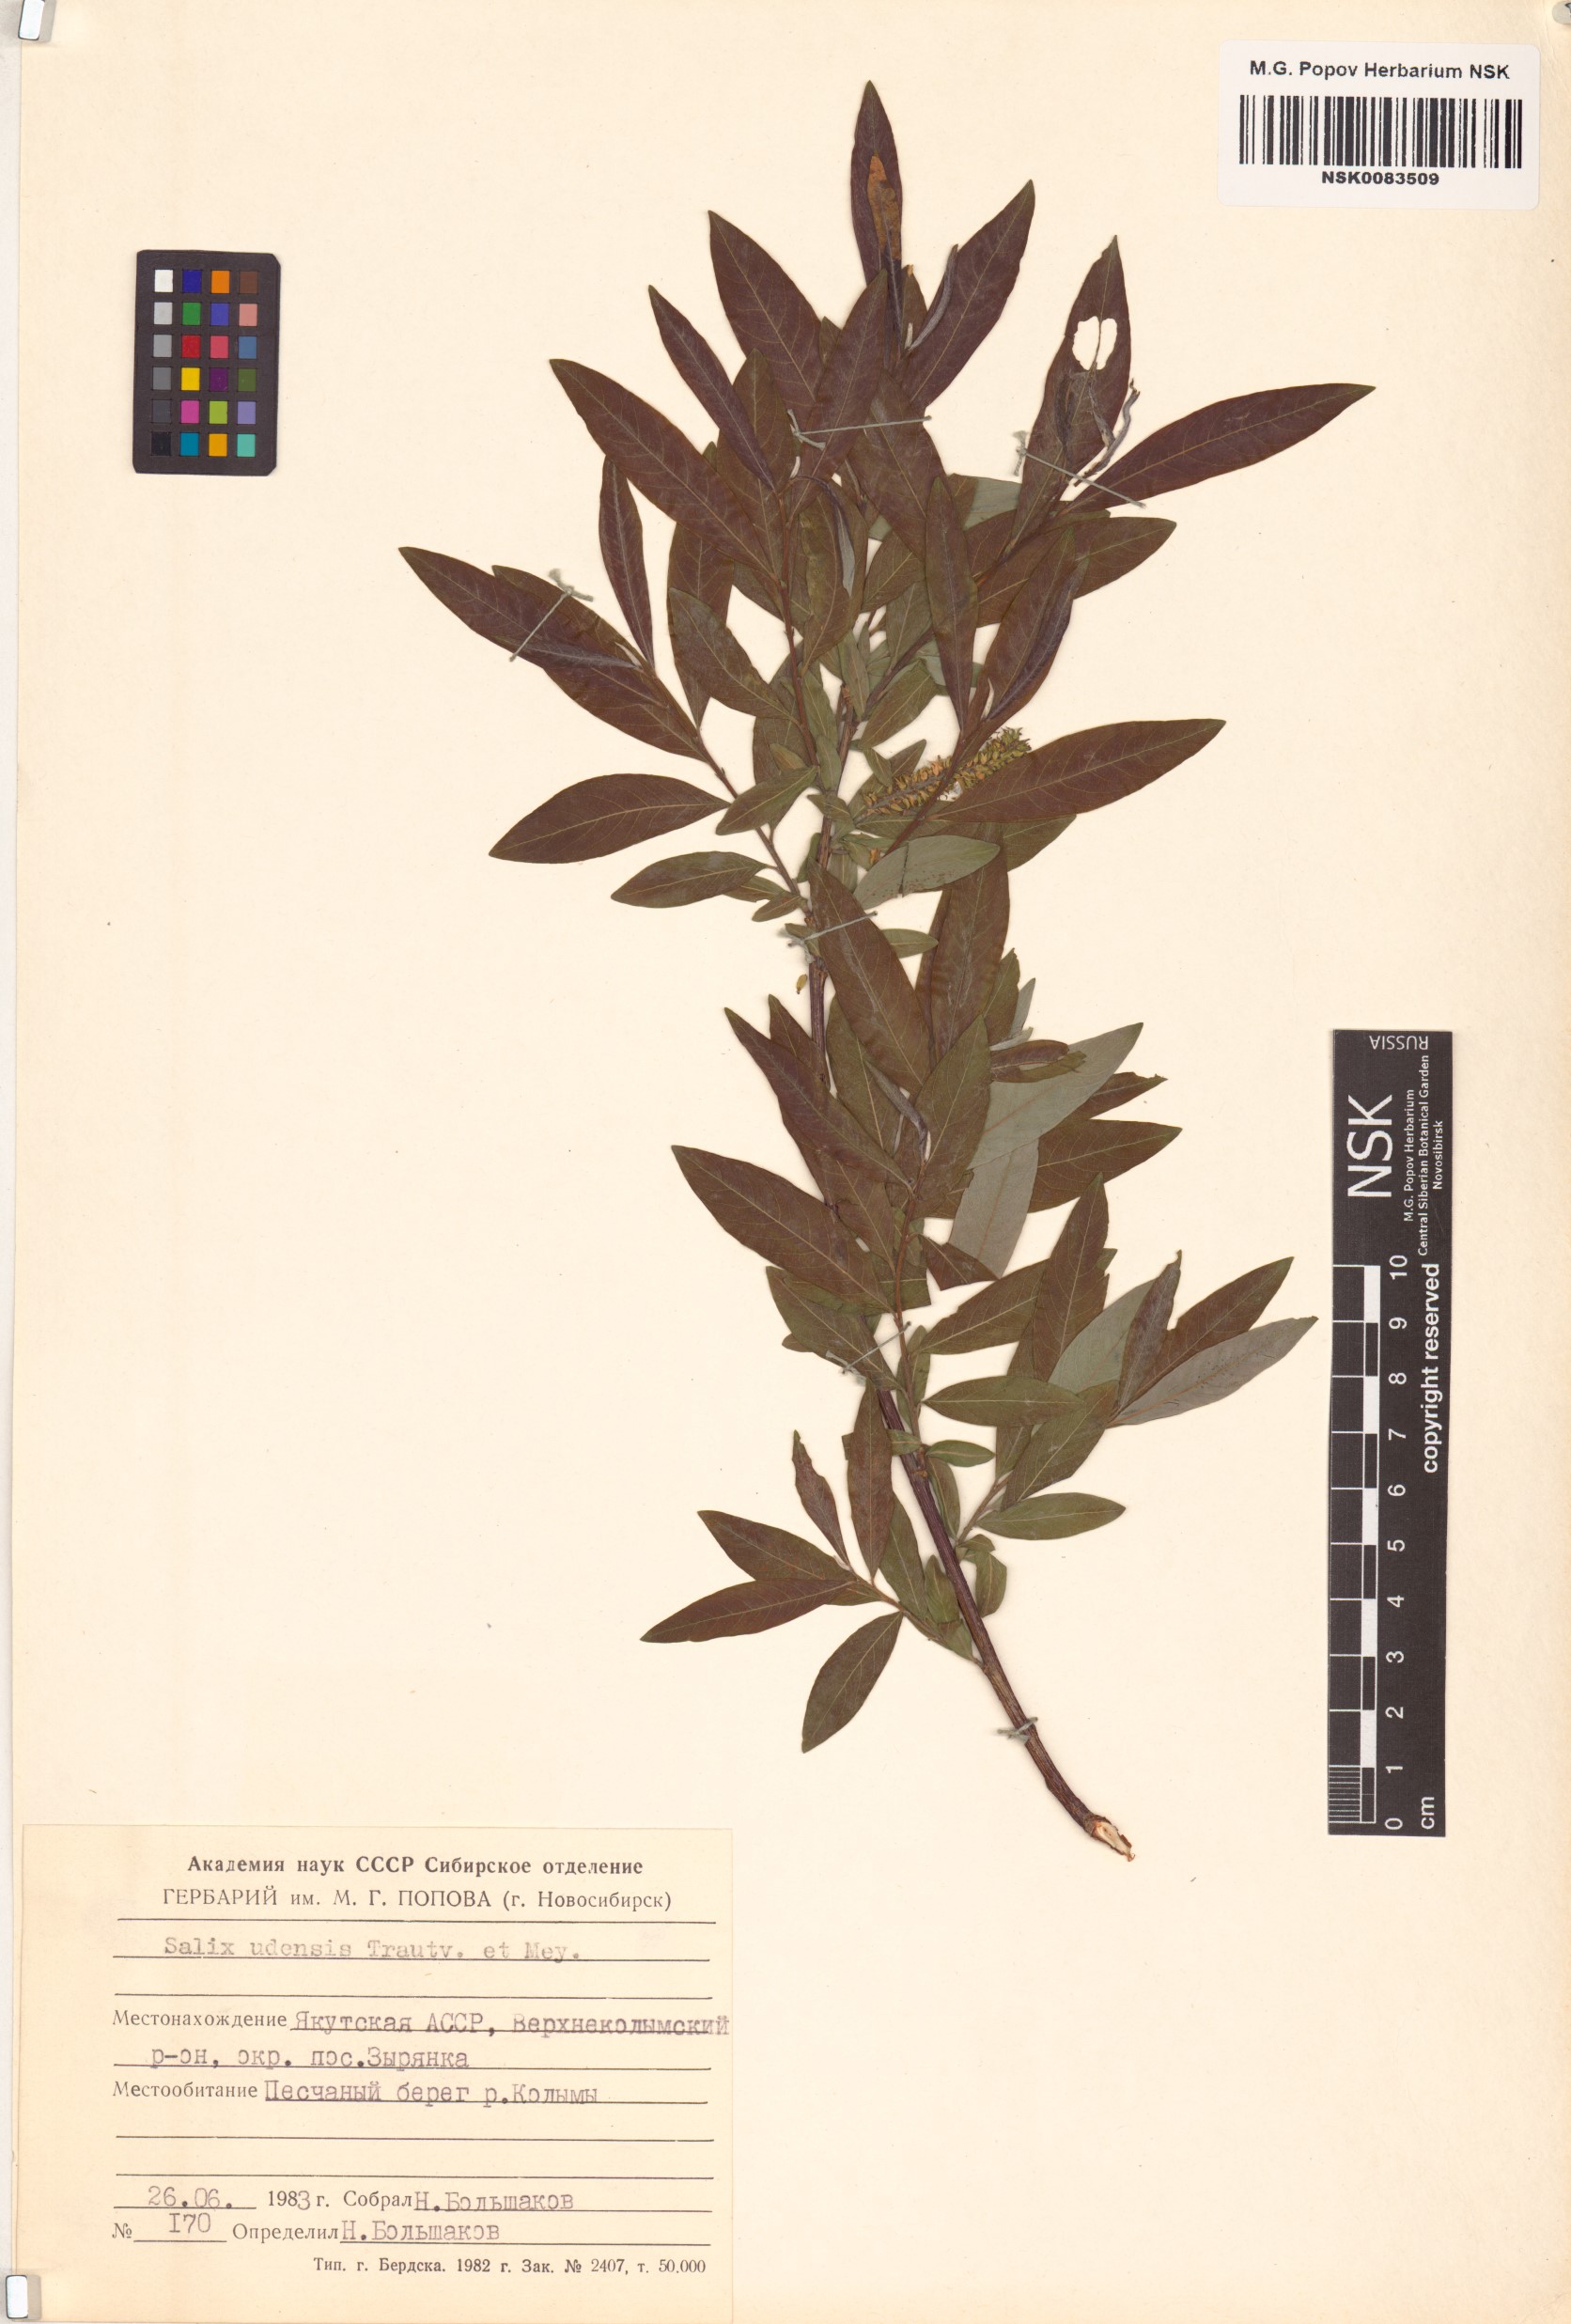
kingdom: Plantae
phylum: Tracheophyta
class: Magnoliopsida
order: Malpighiales
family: Salicaceae
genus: Salix
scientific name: Salix udensis
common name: Sachalin willow
